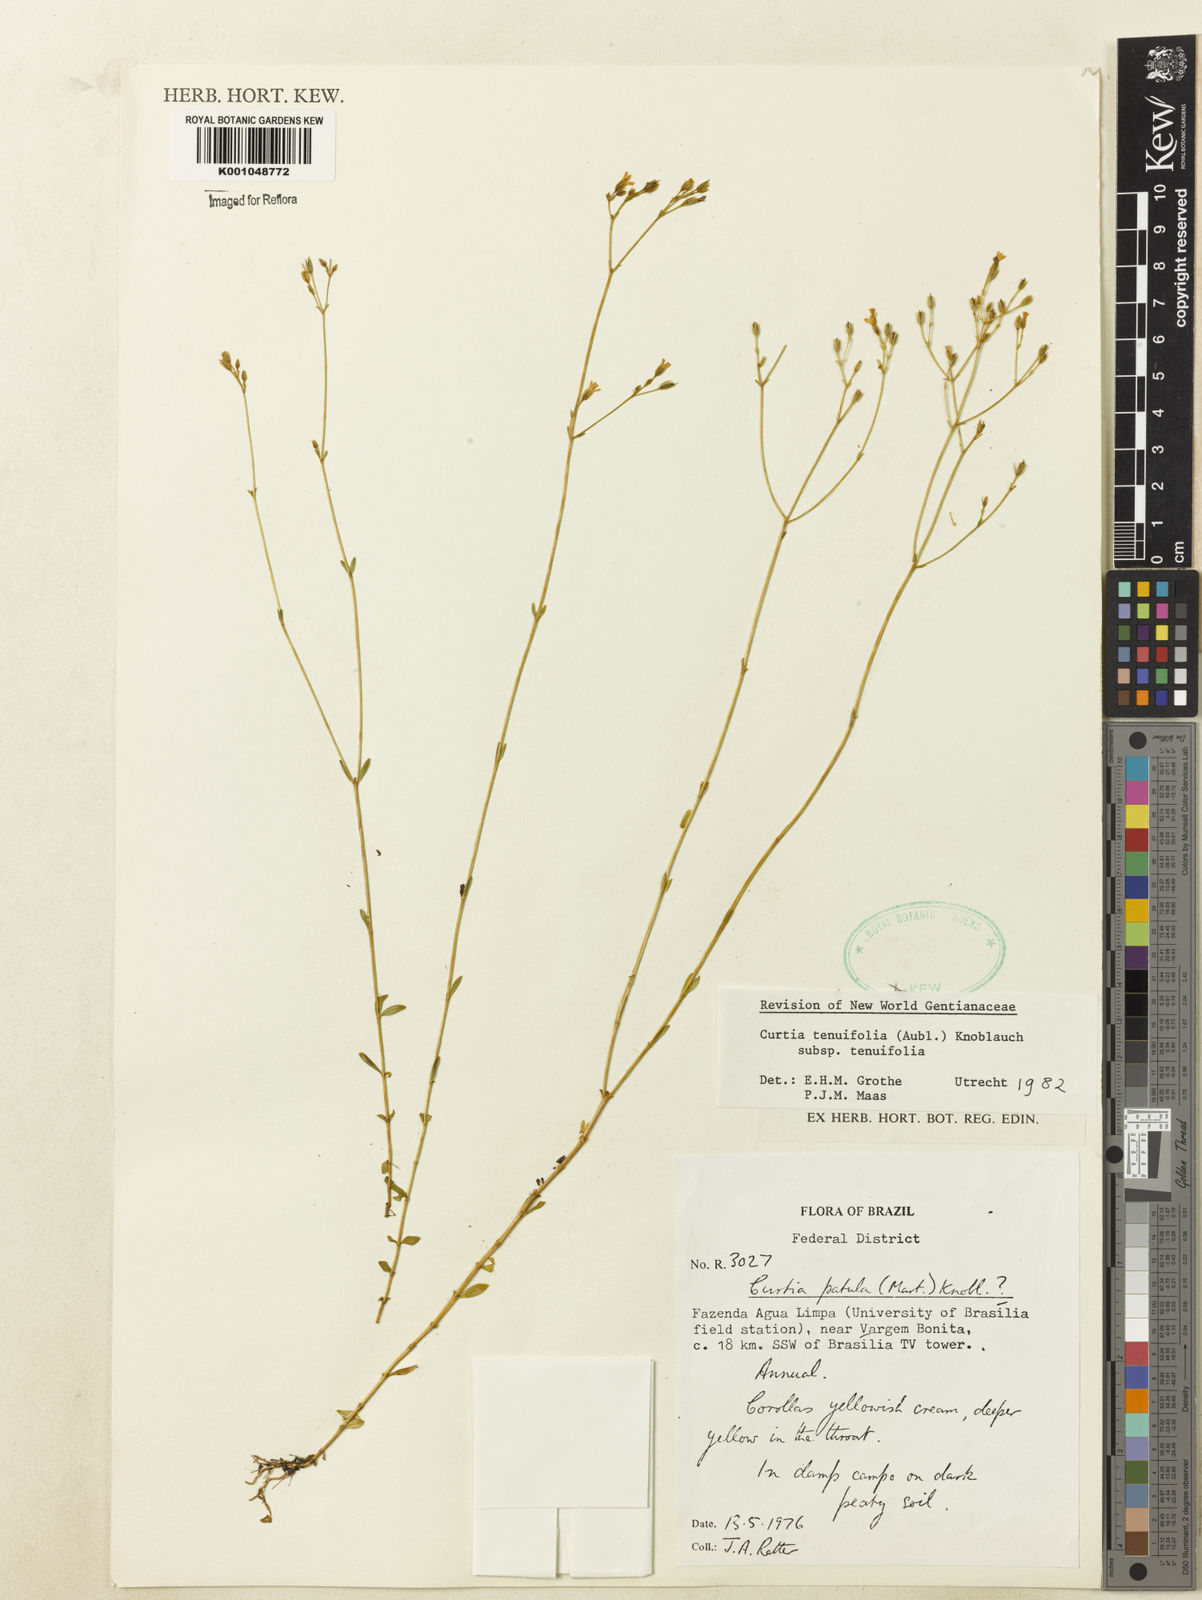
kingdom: Plantae
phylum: Tracheophyta
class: Magnoliopsida
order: Gentianales
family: Gentianaceae
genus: Curtia
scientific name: Curtia tenuifolia
